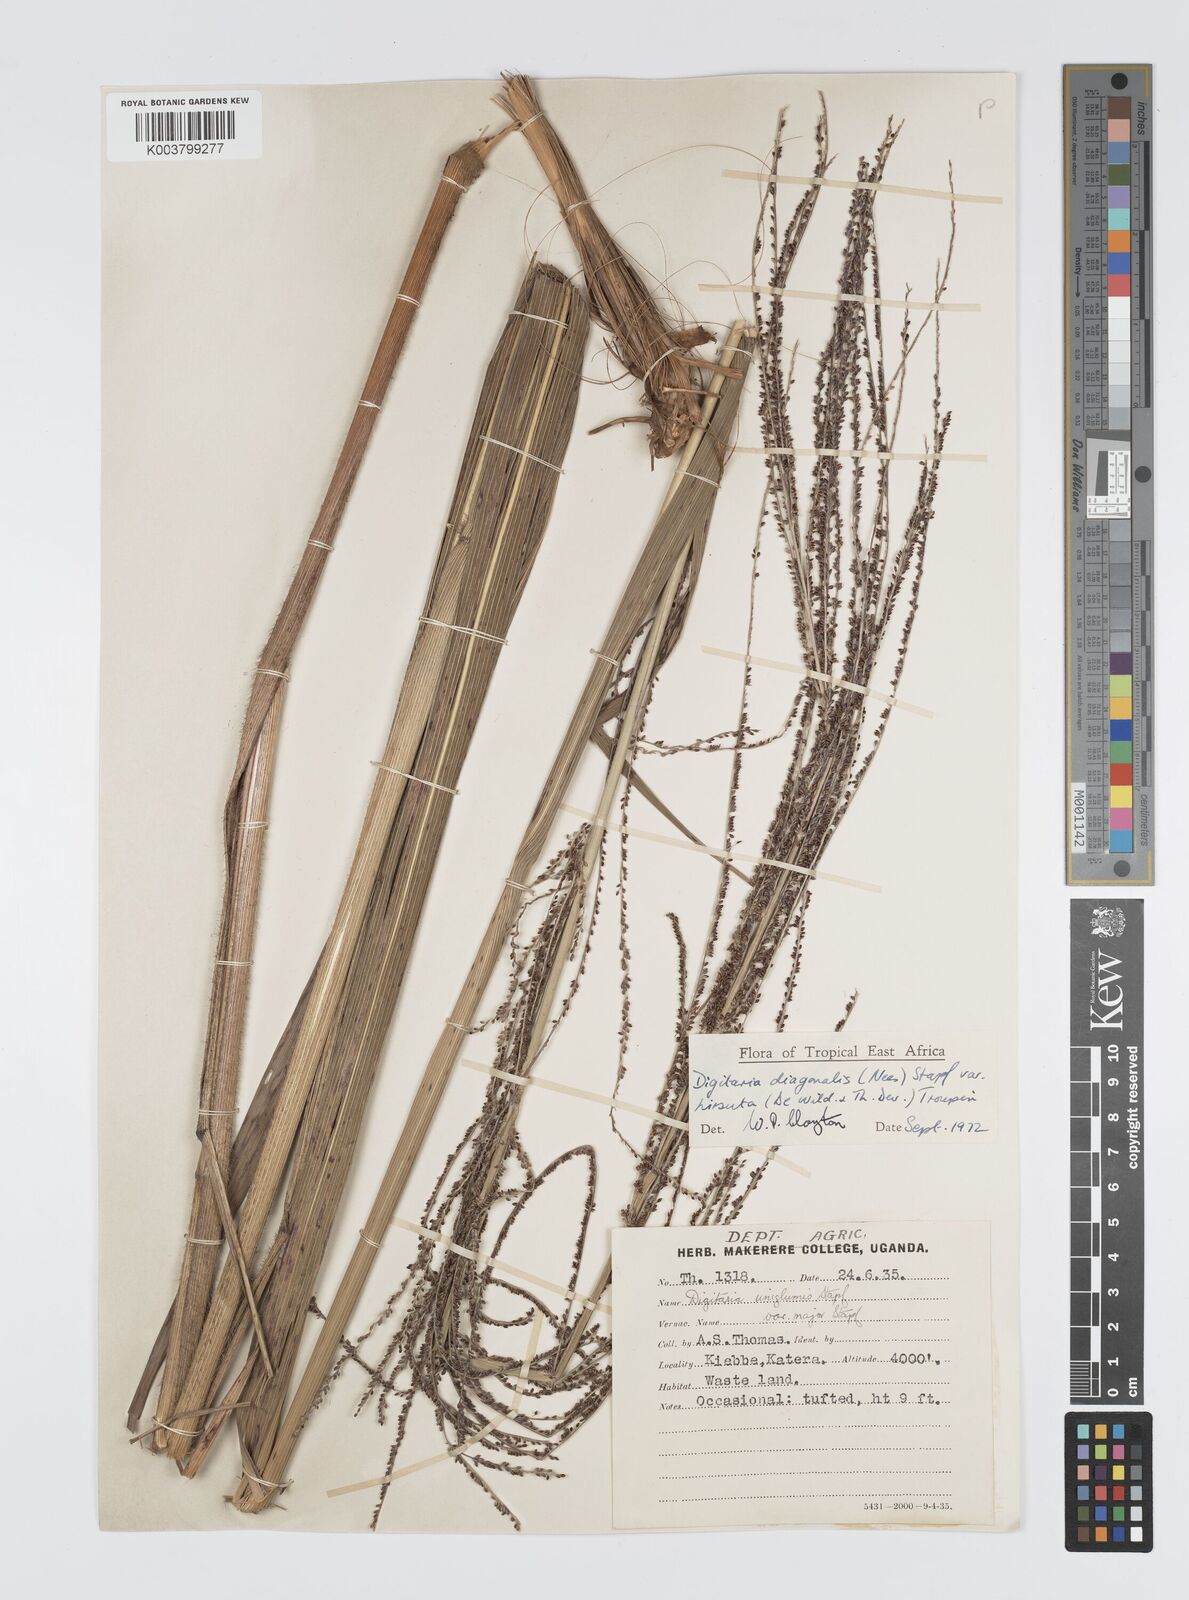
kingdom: Plantae
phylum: Tracheophyta
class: Liliopsida
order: Poales
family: Poaceae
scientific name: Poaceae
